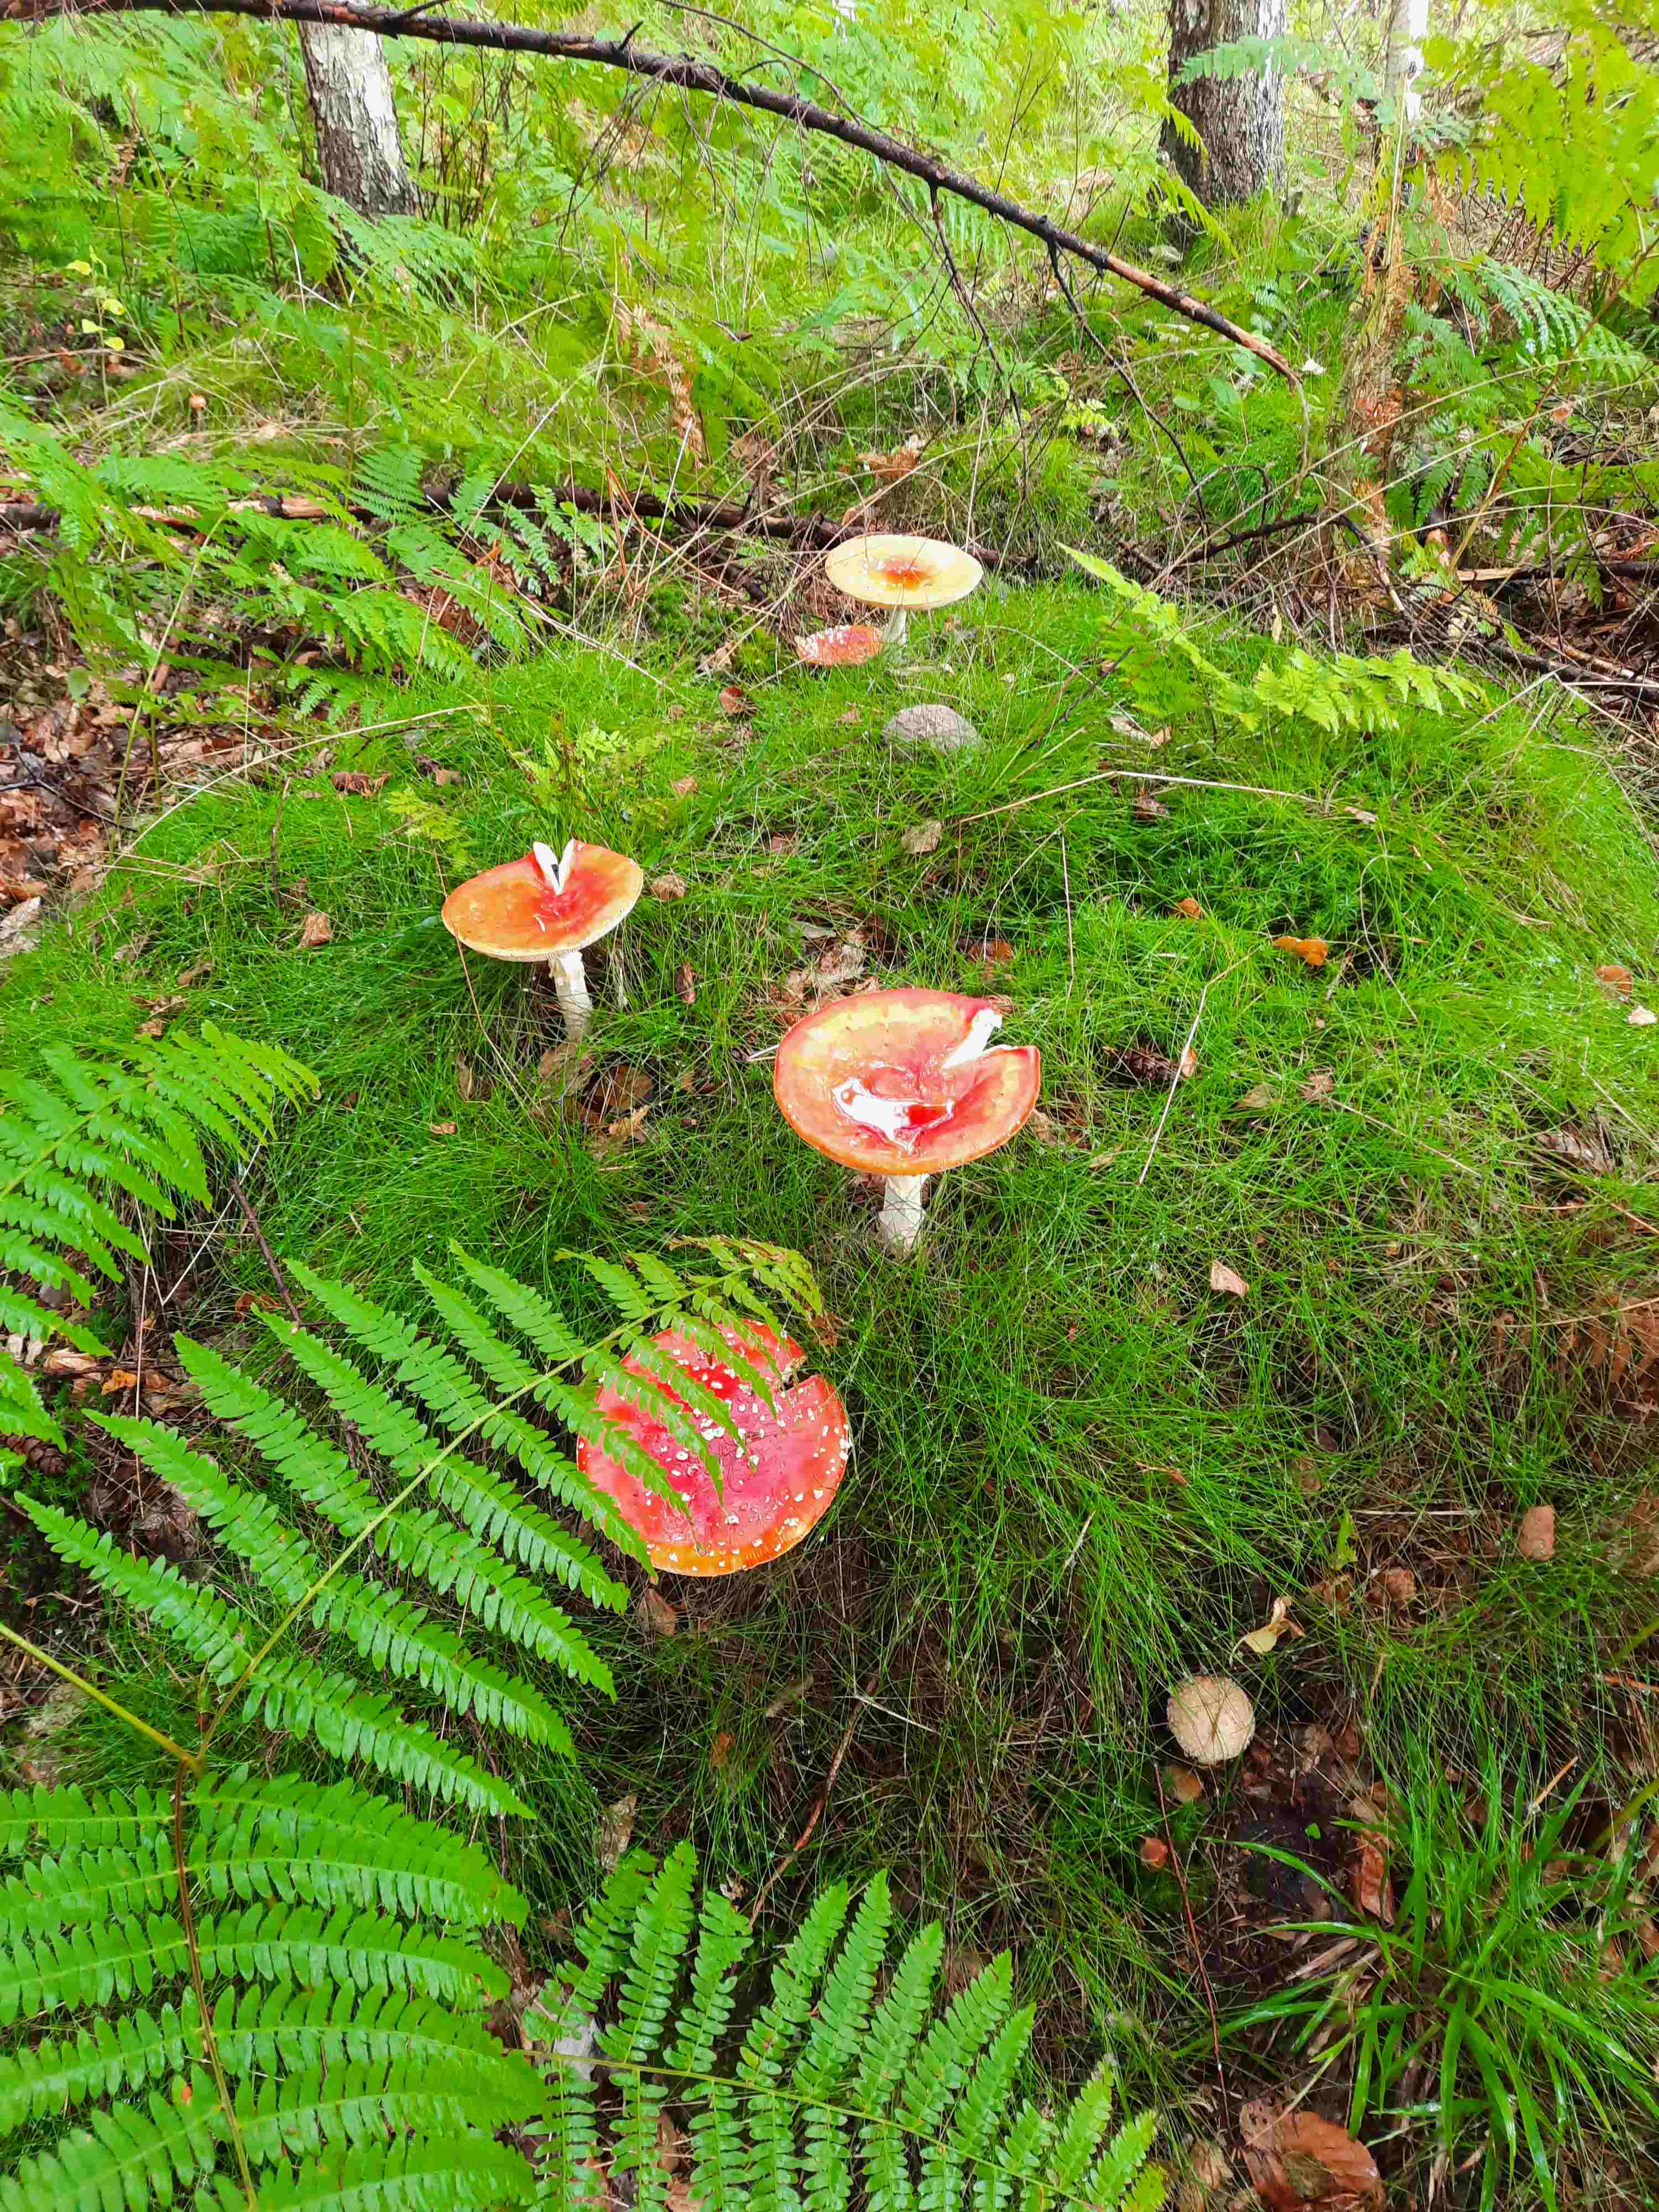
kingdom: Fungi
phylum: Basidiomycota
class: Agaricomycetes
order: Agaricales
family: Amanitaceae
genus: Amanita
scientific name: Amanita muscaria
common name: rød fluesvamp
